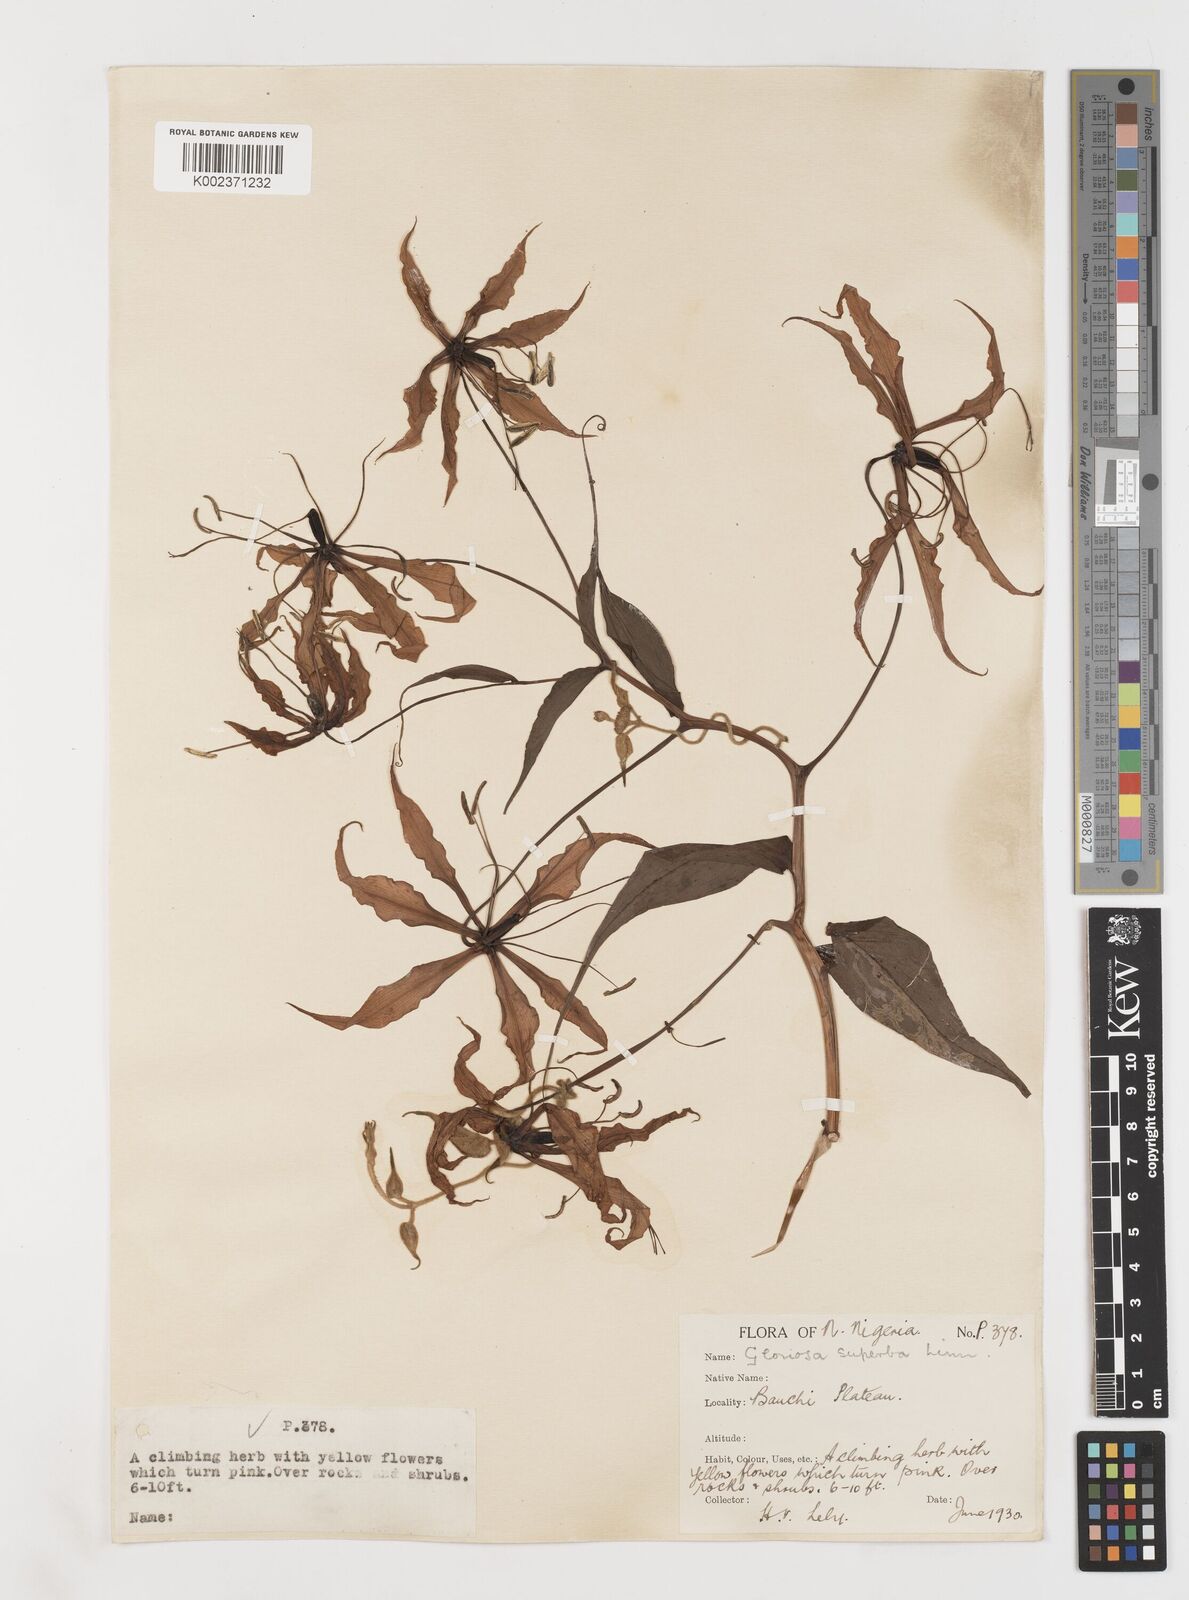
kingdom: Plantae
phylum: Tracheophyta
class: Liliopsida
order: Liliales
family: Colchicaceae
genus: Gloriosa
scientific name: Gloriosa superba
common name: Flame lily
